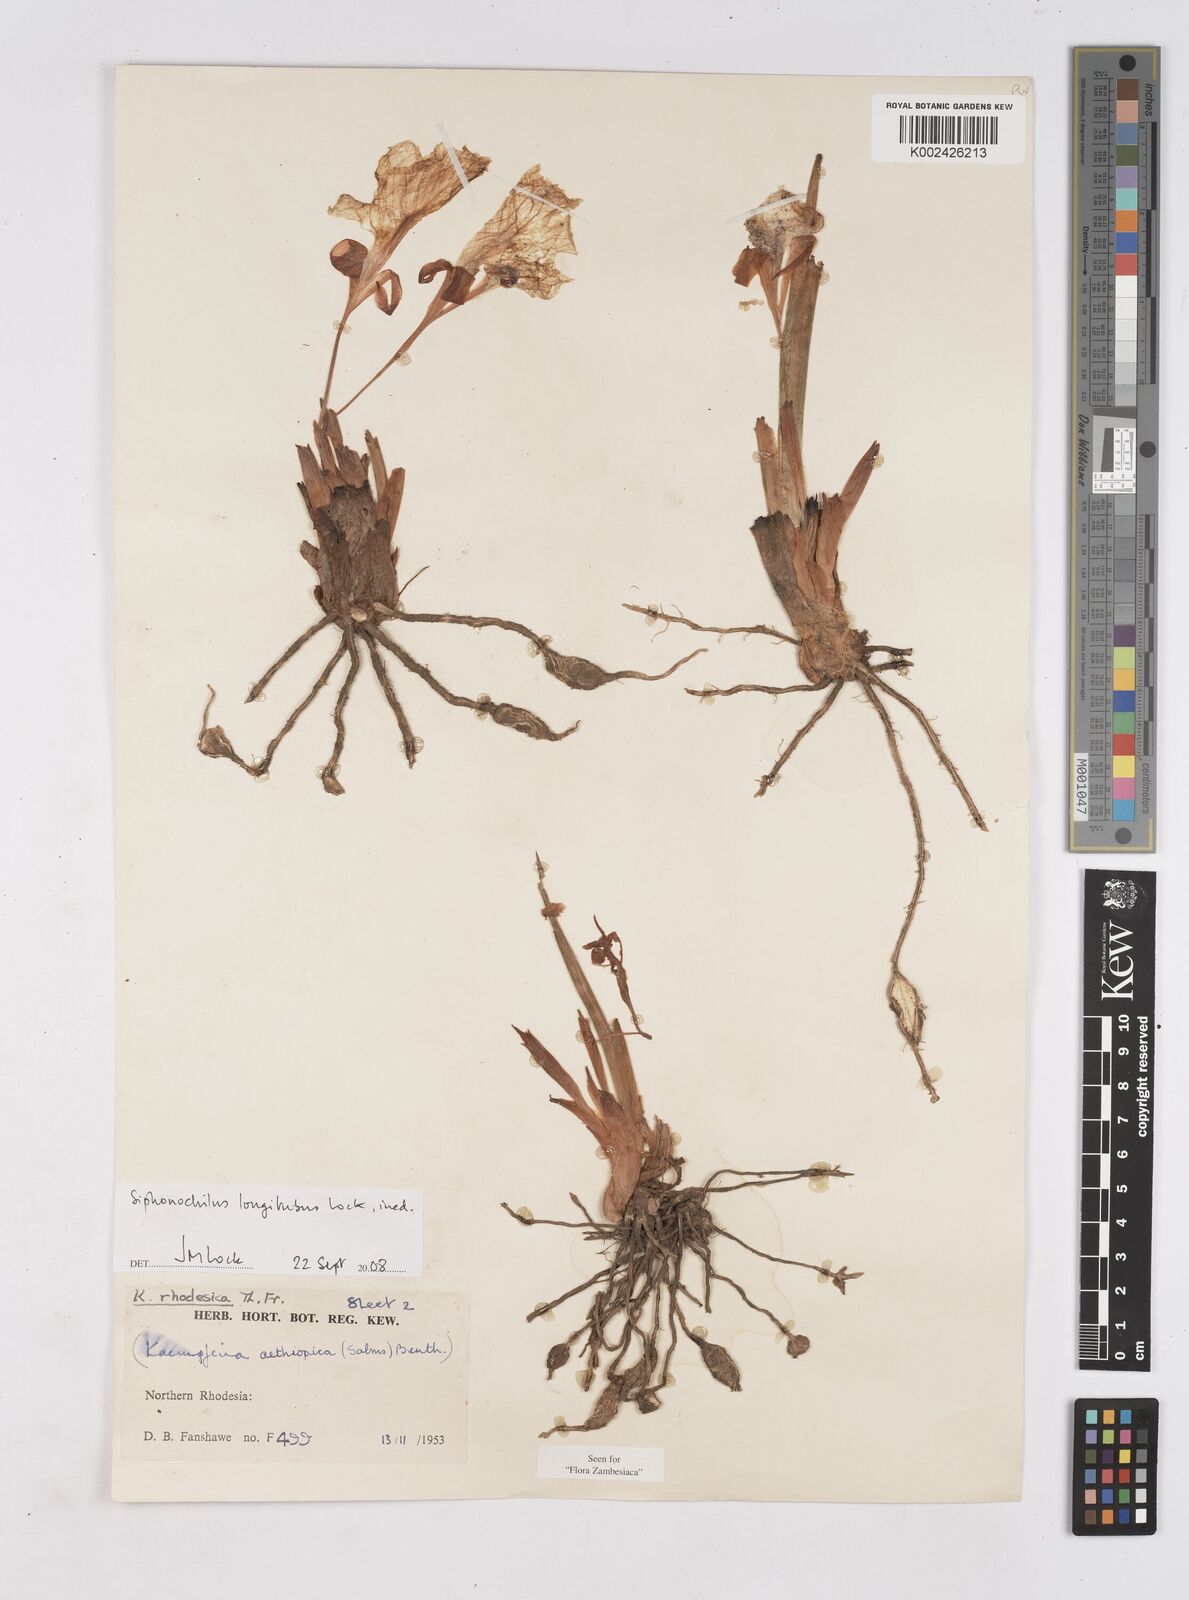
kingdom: Plantae
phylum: Tracheophyta
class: Liliopsida
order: Zingiberales
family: Zingiberaceae
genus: Siphonochilus
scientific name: Siphonochilus longitubus
